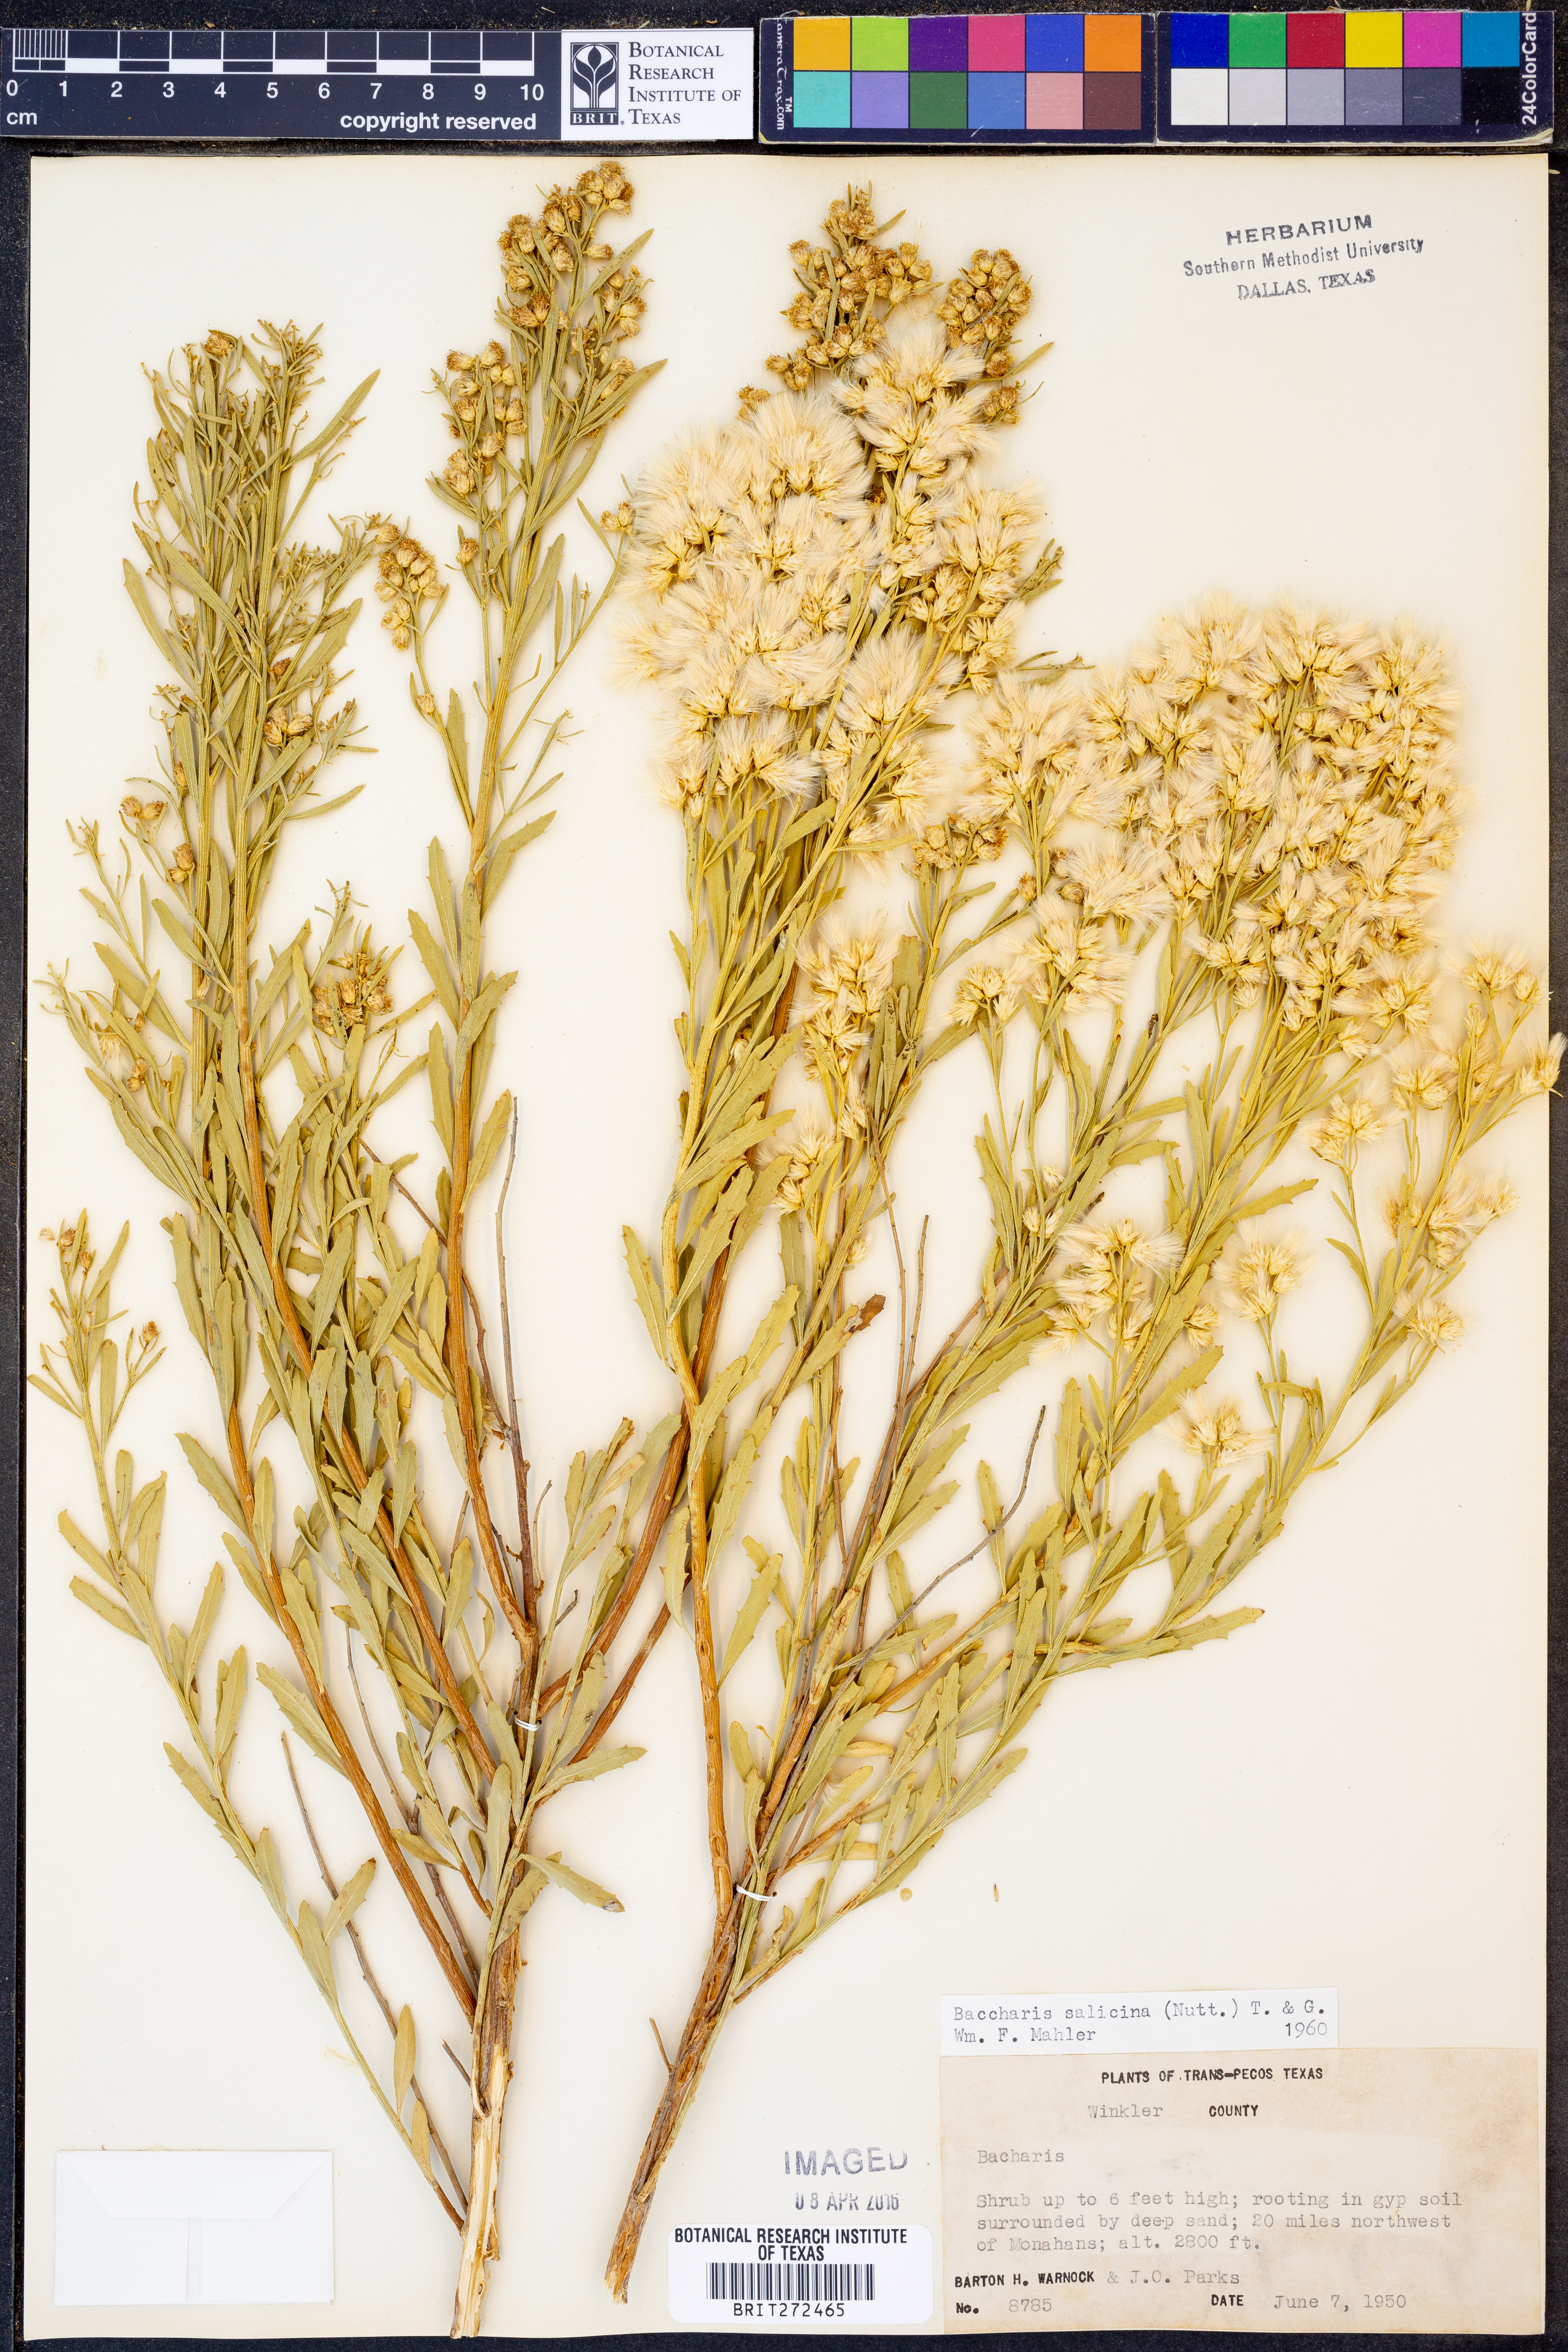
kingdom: Plantae
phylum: Tracheophyta
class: Magnoliopsida
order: Asterales
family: Asteraceae
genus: Baccharis
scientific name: Baccharis salicina
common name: Willow baccharis
